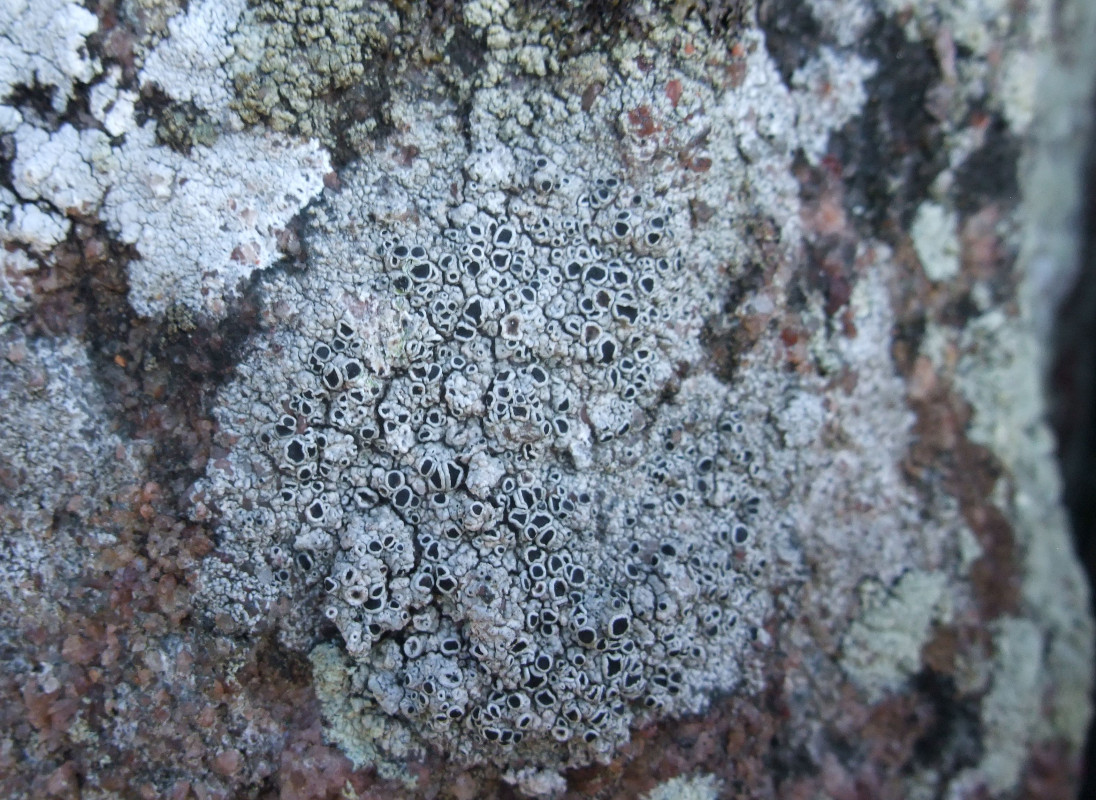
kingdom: Fungi
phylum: Ascomycota
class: Lecanoromycetes
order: Lecanorales
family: Tephromelataceae
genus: Tephromela
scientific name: Tephromela atra
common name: sortfrugtet kantskivelav
